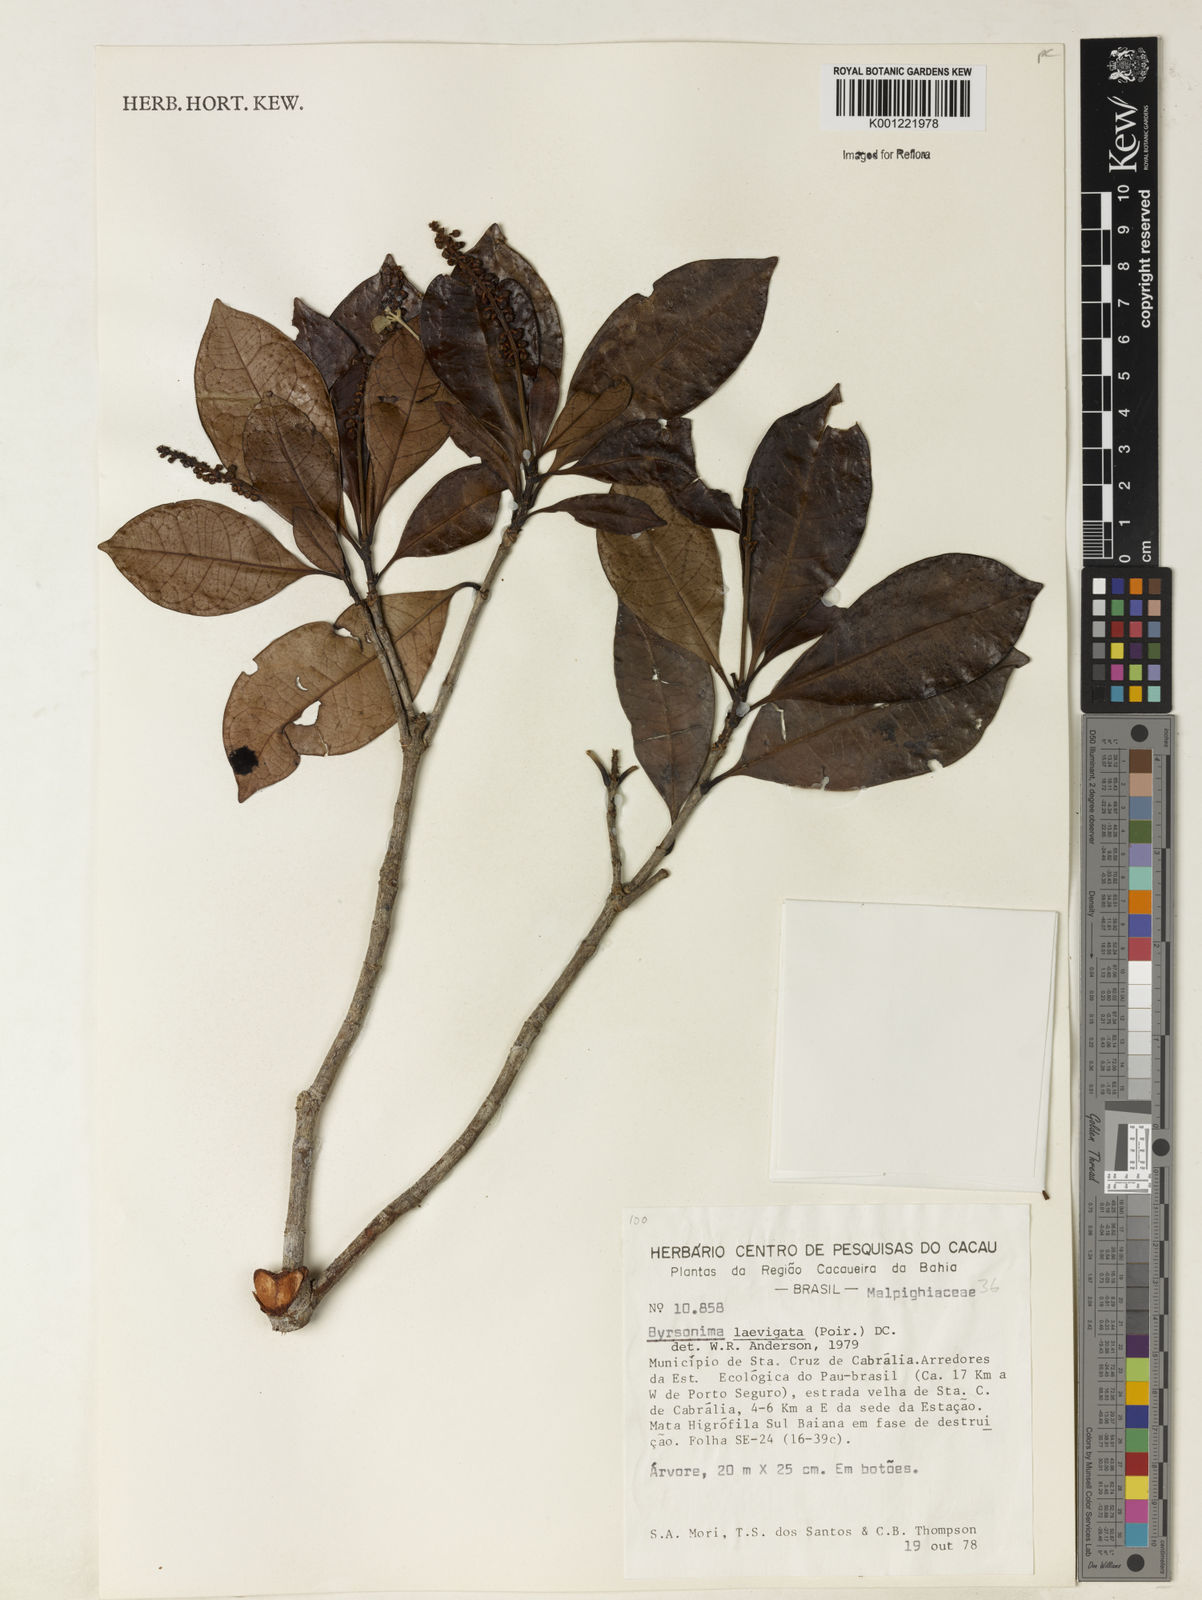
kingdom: Plantae
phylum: Tracheophyta
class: Magnoliopsida
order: Malpighiales
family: Malpighiaceae
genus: Byrsonima
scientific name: Byrsonima laevigata
